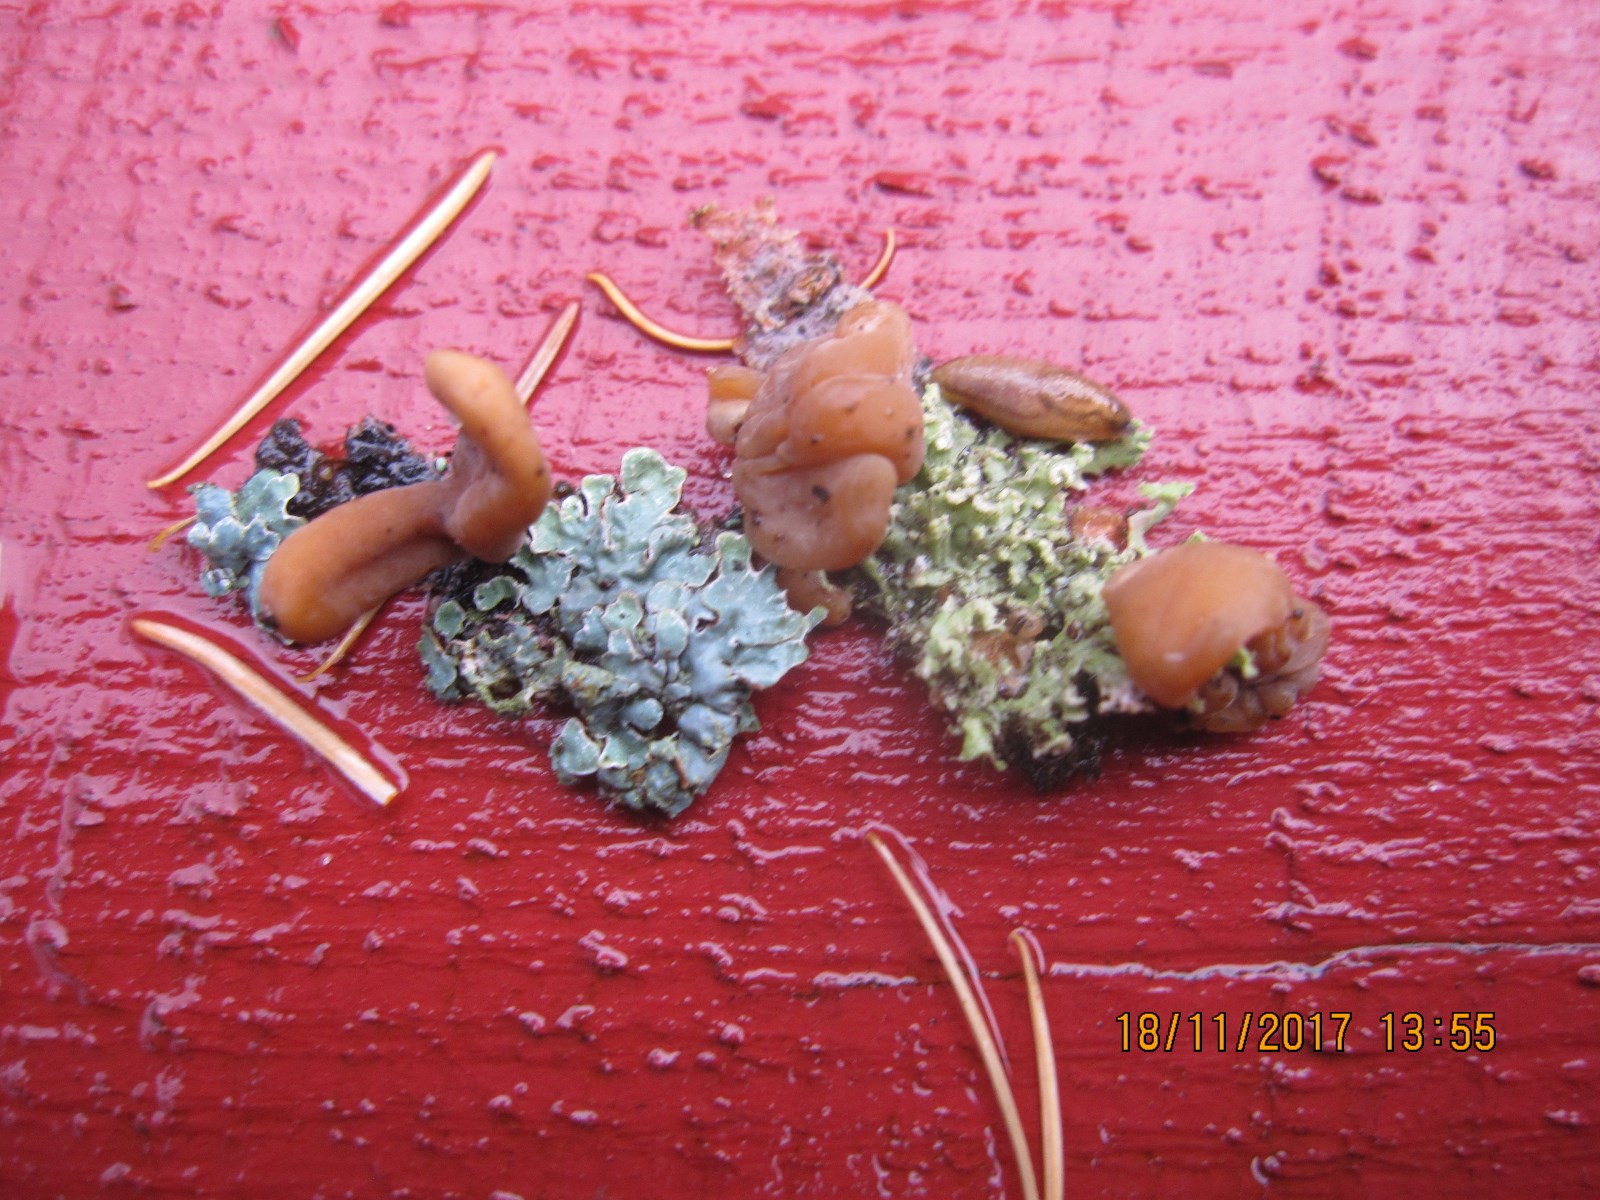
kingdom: Fungi
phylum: Basidiomycota
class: Agaricomycetes
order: Agaricales
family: Typhulaceae
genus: Typhula
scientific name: Typhula contorta
